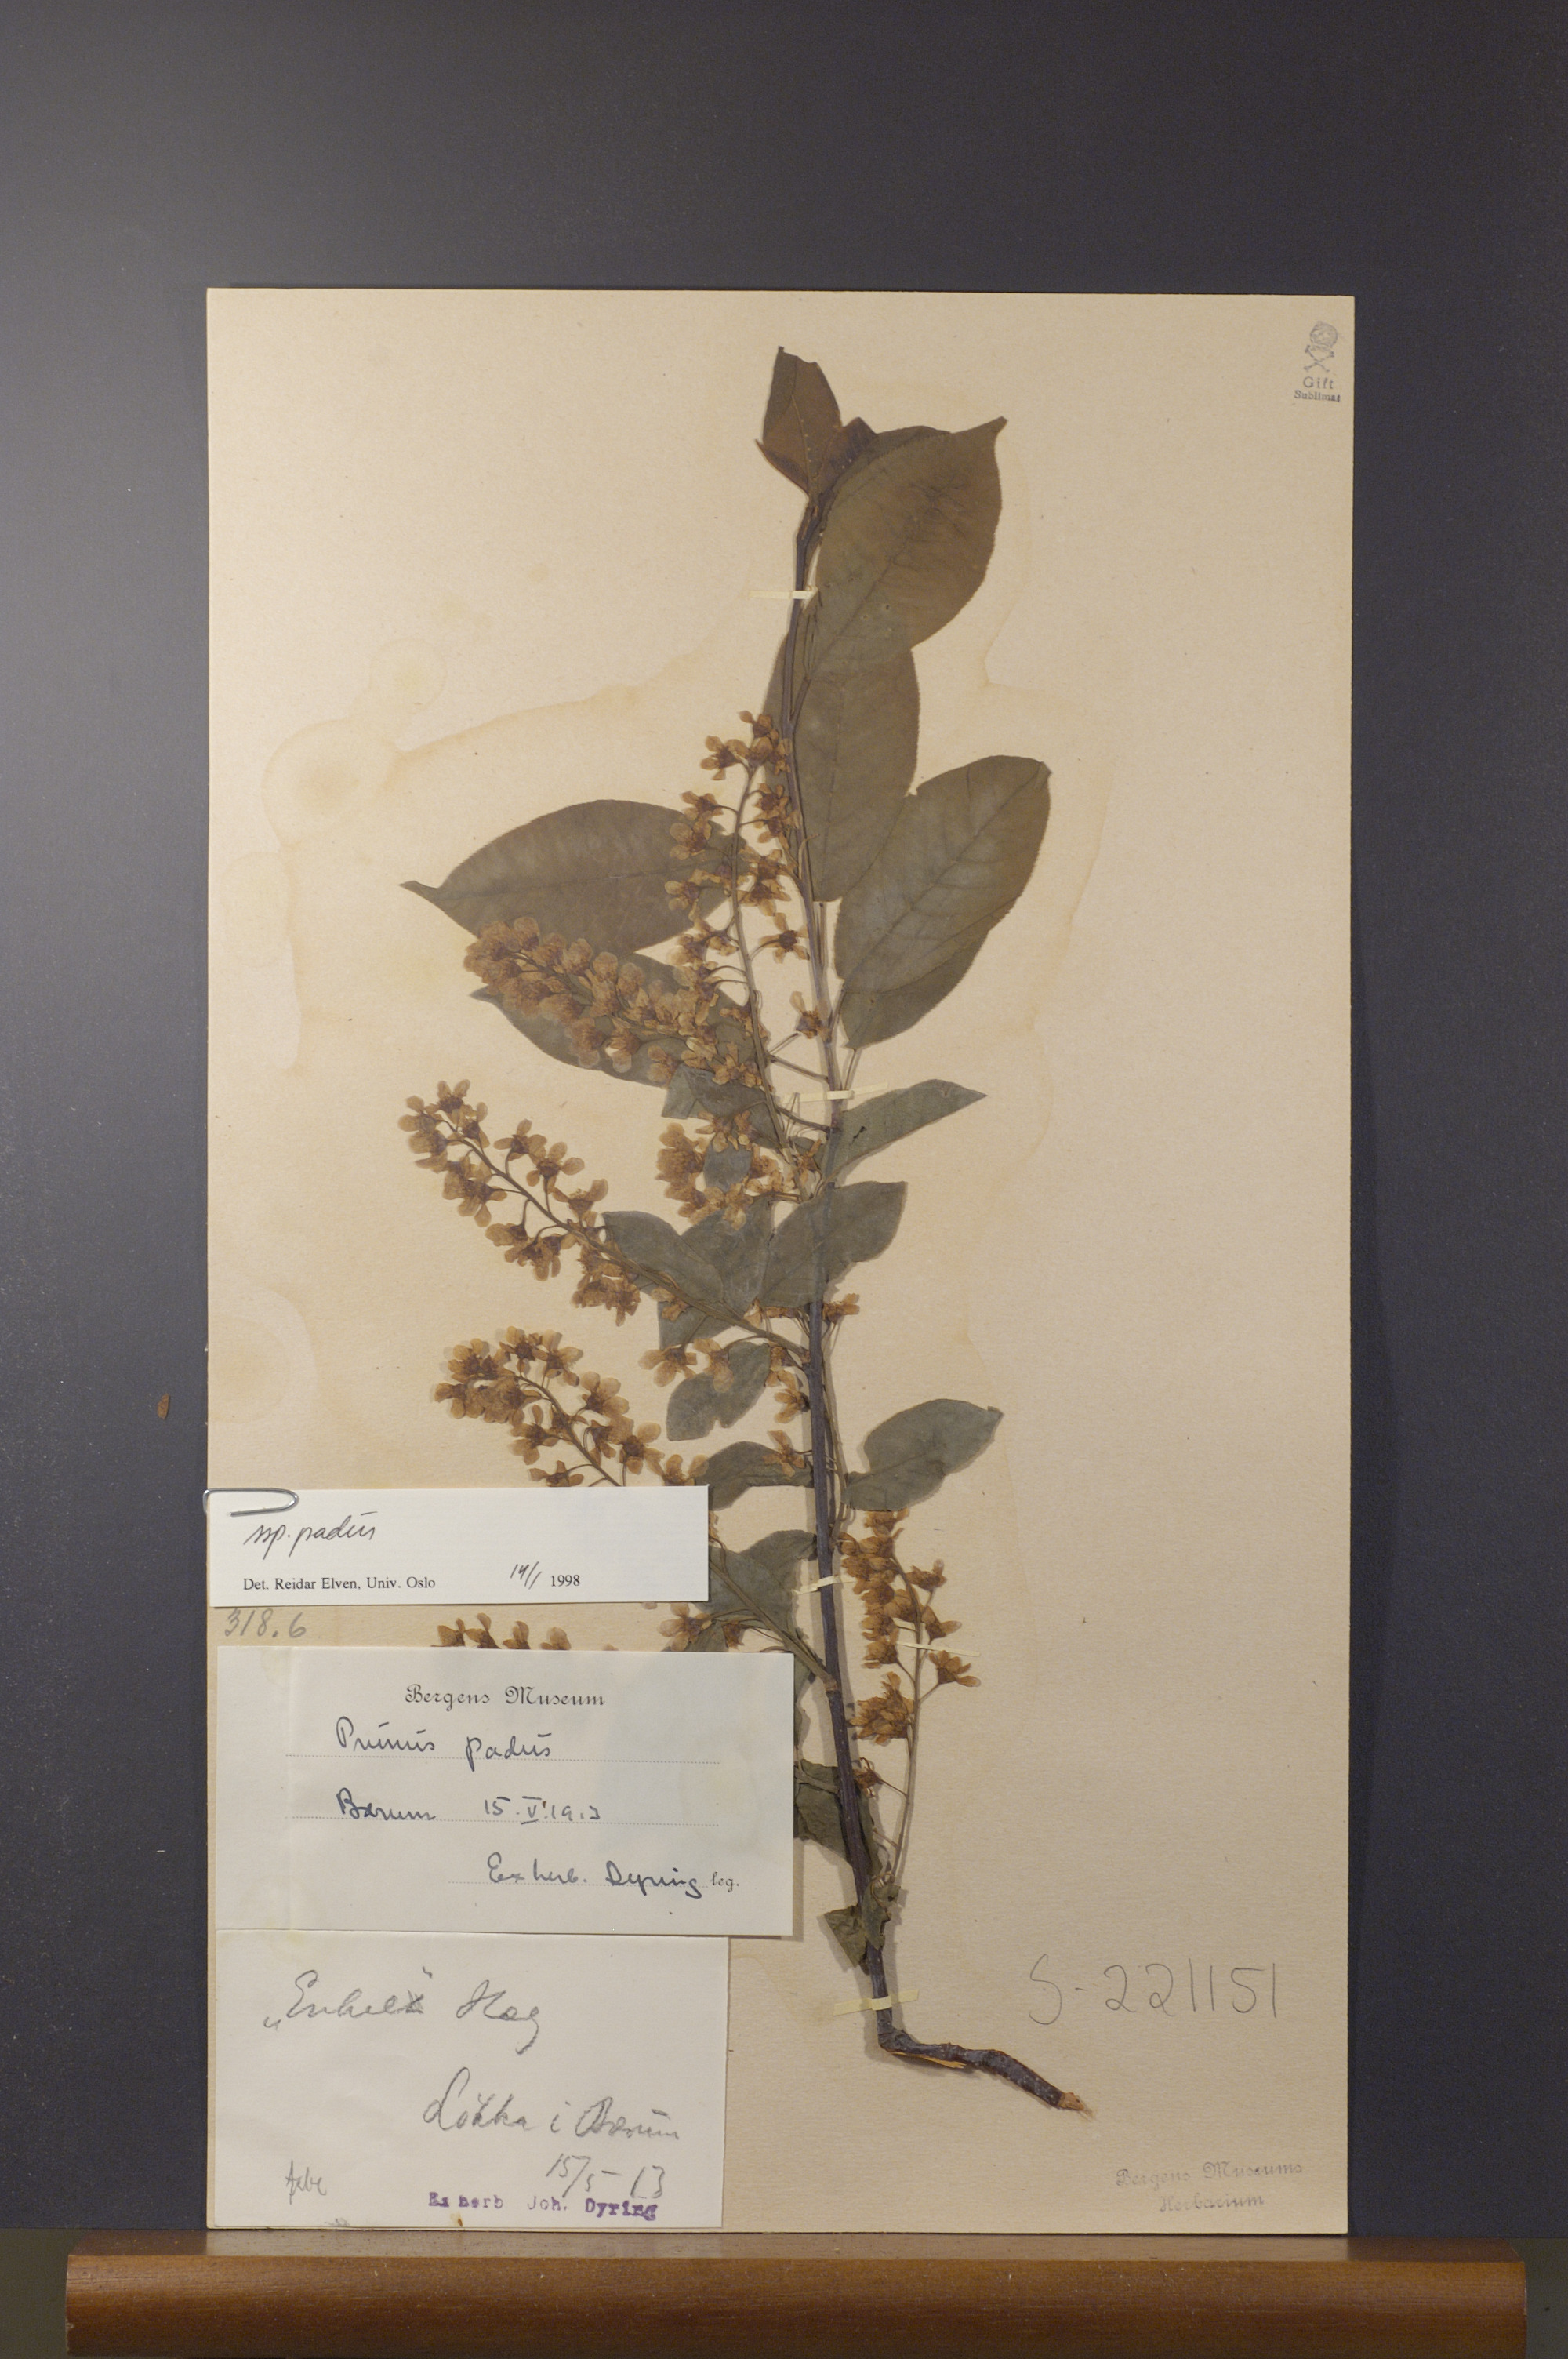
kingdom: Plantae
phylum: Tracheophyta
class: Magnoliopsida
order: Rosales
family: Rosaceae
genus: Prunus
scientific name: Prunus padus
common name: Bird cherry
